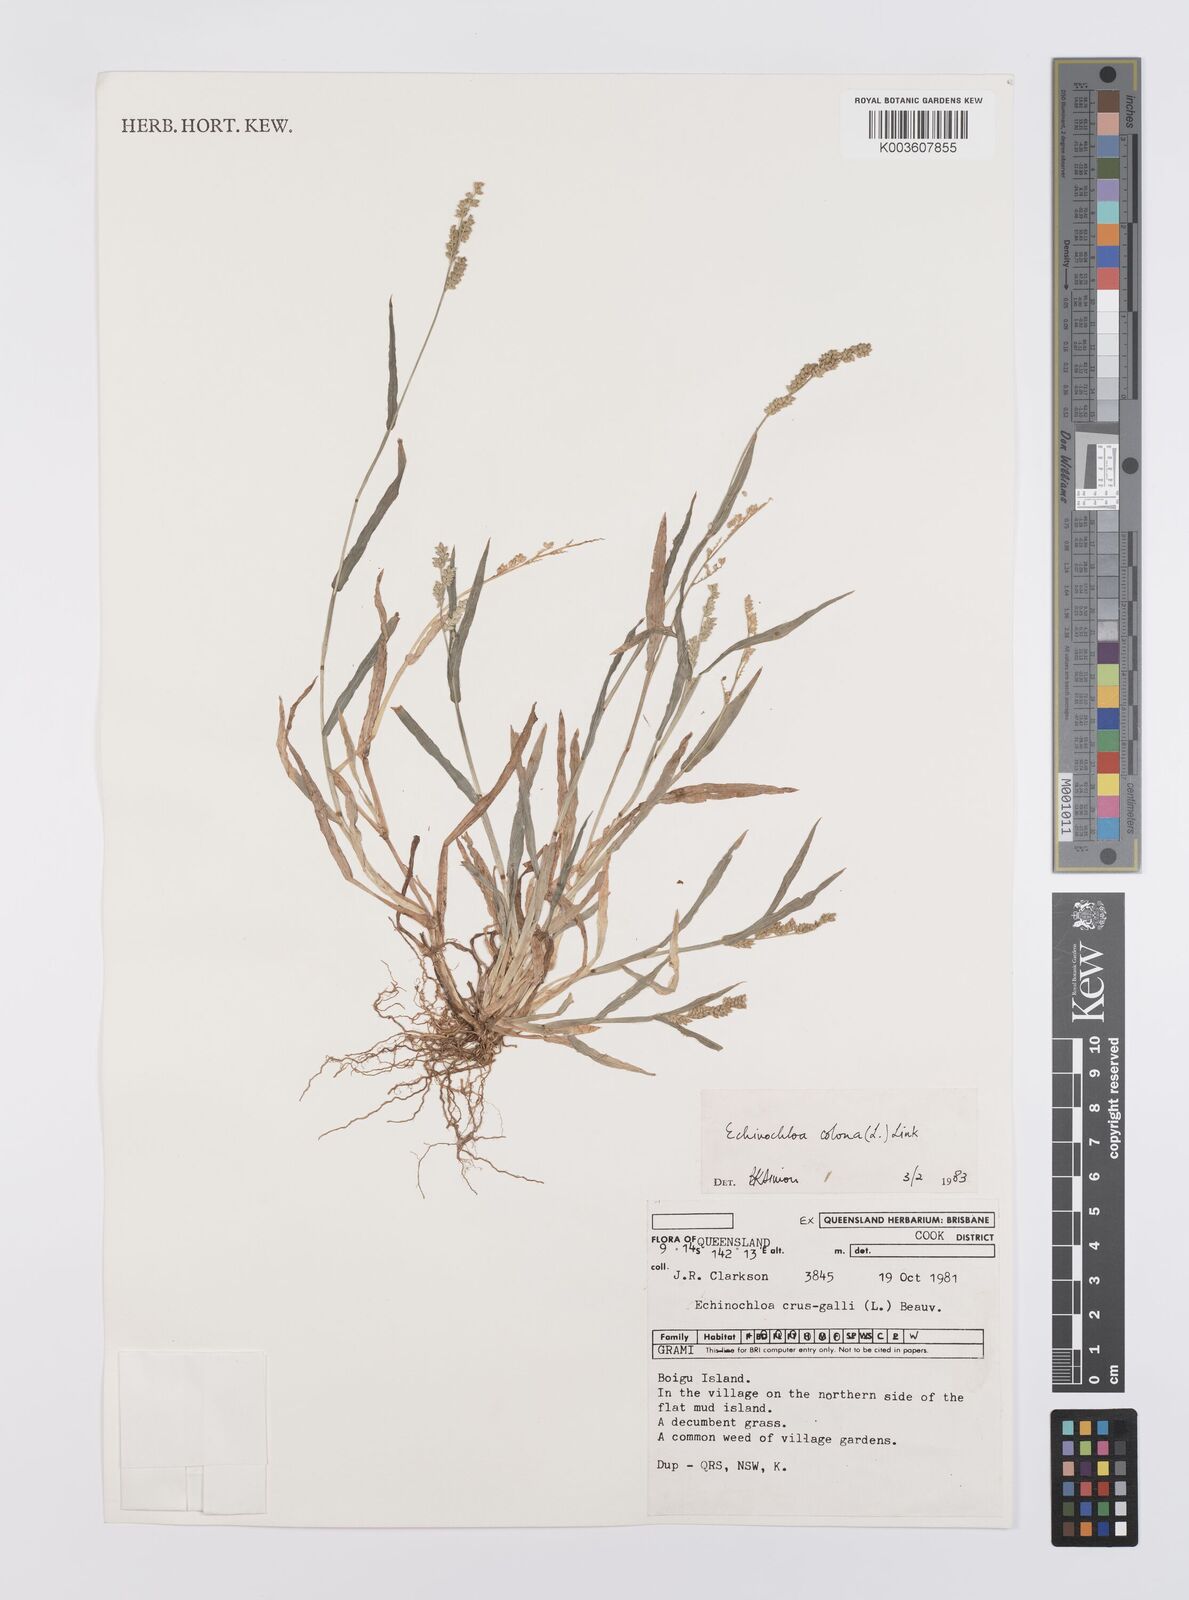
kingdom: Plantae
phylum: Tracheophyta
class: Liliopsida
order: Poales
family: Poaceae
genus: Echinochloa
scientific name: Echinochloa colonum
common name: Jungle rice
